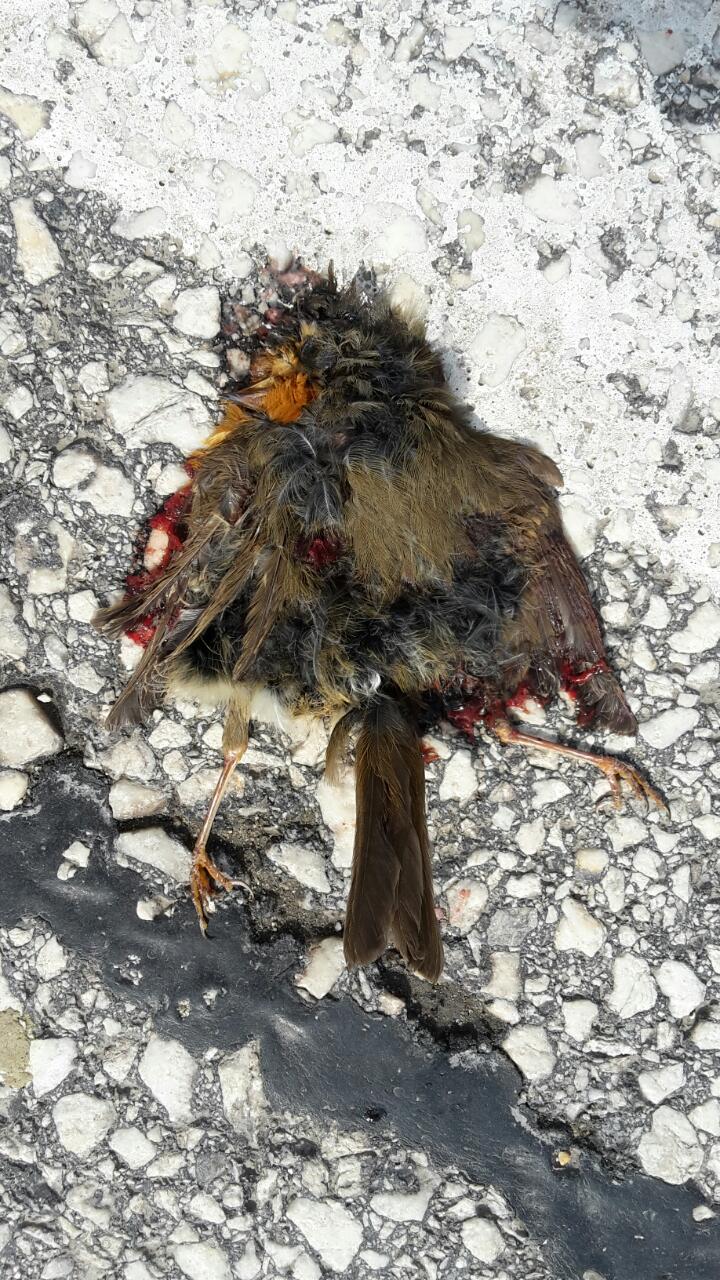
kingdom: Animalia
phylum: Chordata
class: Aves
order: Passeriformes
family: Muscicapidae
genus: Erithacus
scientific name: Erithacus rubecula
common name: European robin
